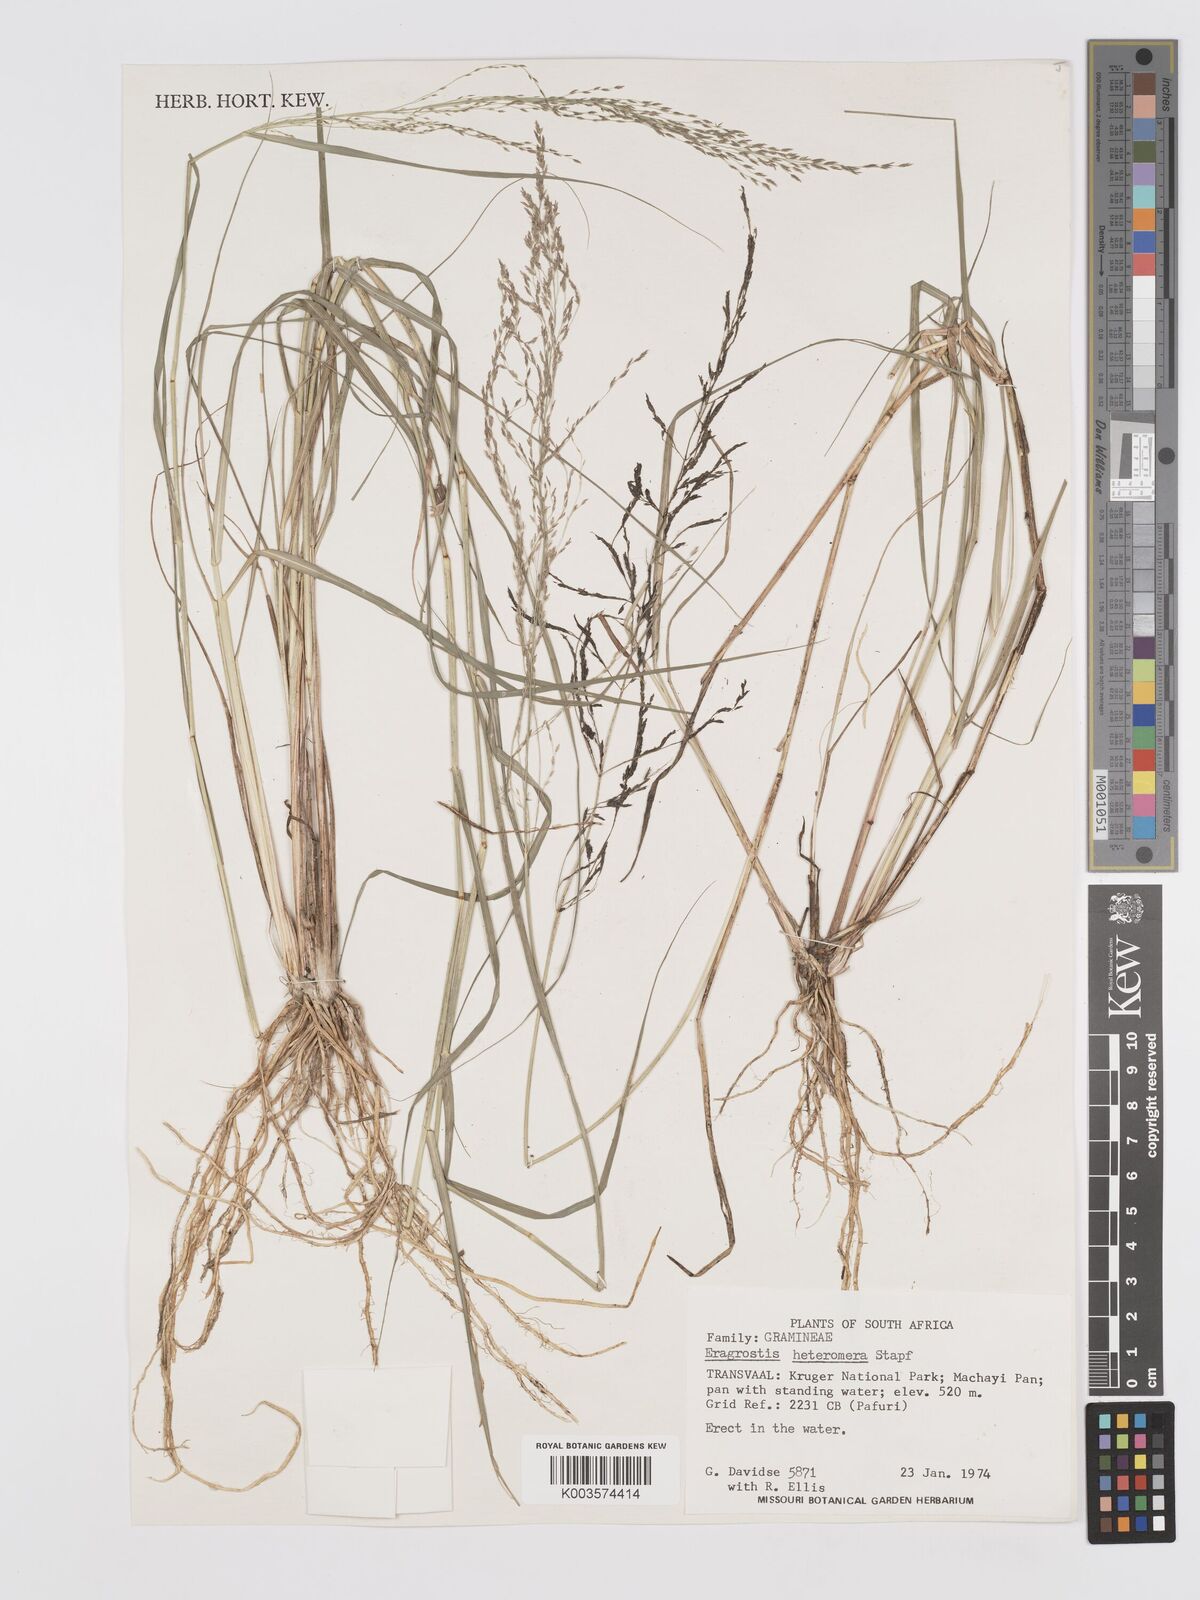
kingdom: Plantae
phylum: Tracheophyta
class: Liliopsida
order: Poales
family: Poaceae
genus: Eragrostis
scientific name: Eragrostis heteromera
